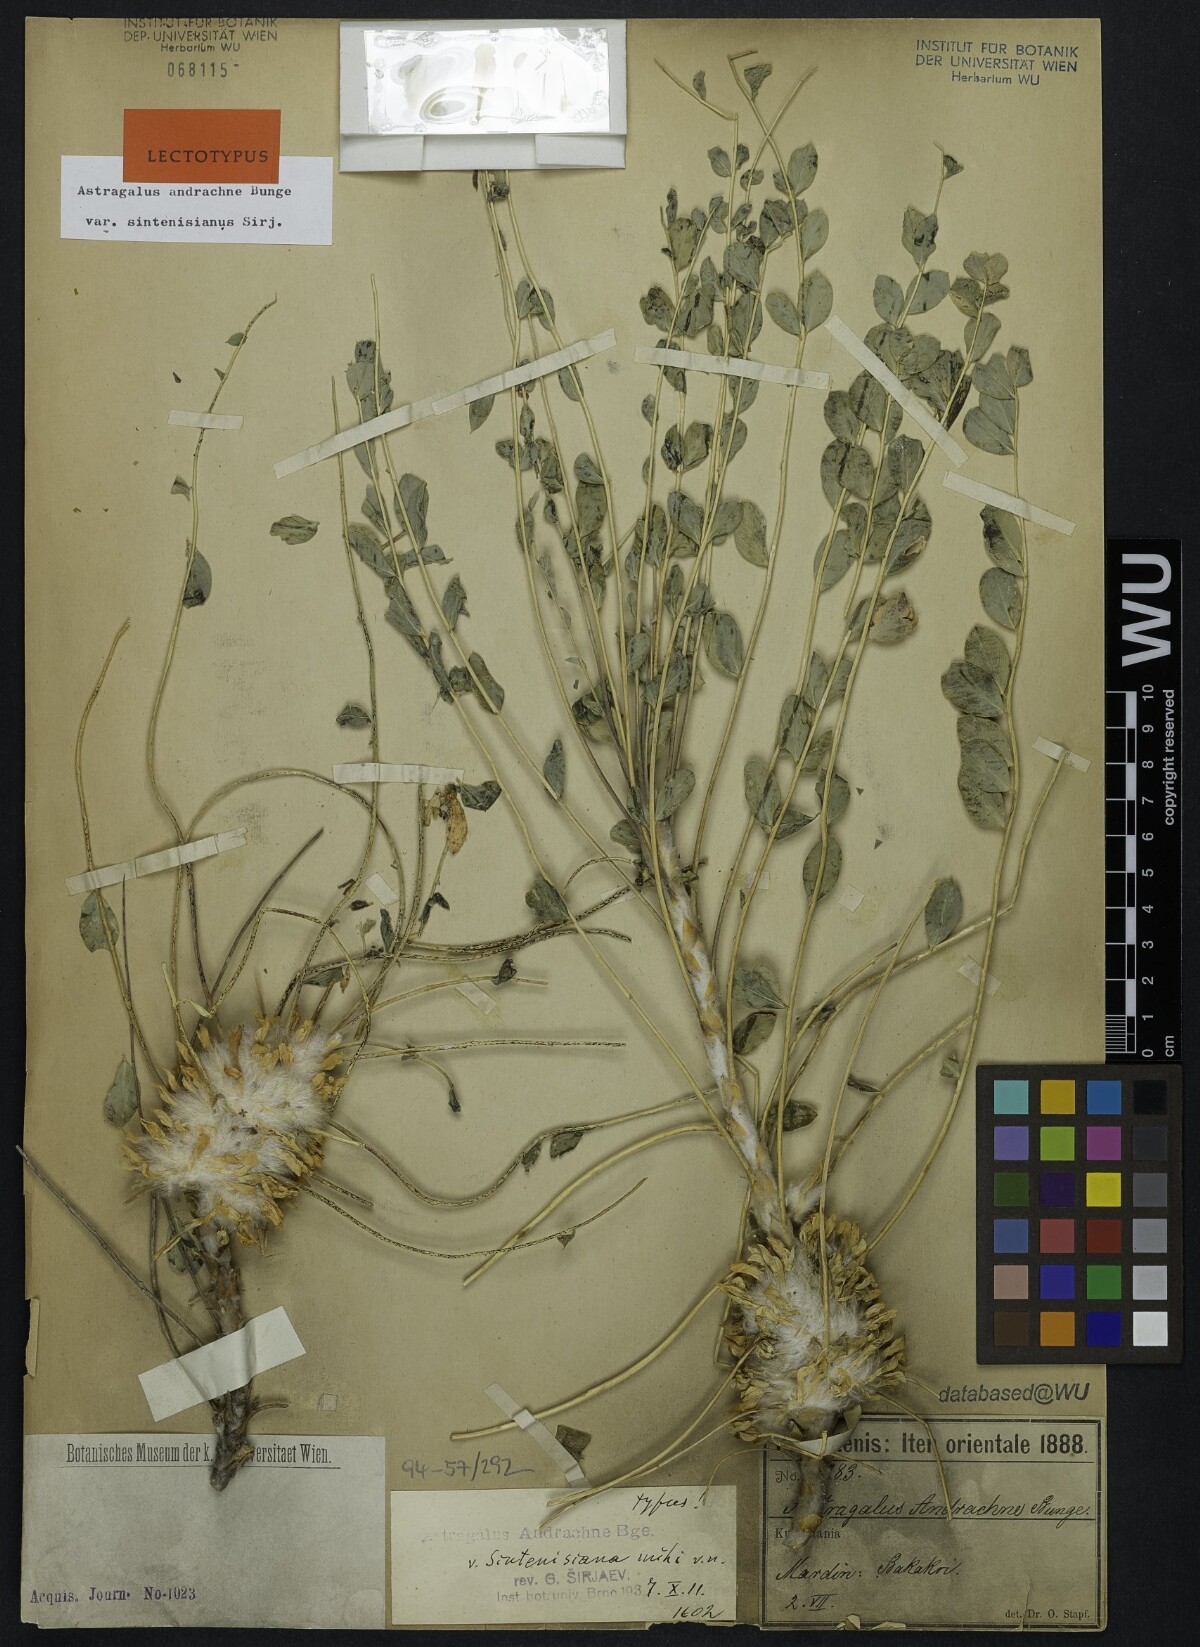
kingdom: Plantae
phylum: Tracheophyta
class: Magnoliopsida
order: Fabales
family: Fabaceae
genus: Astragalus
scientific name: Astragalus cephalotes
